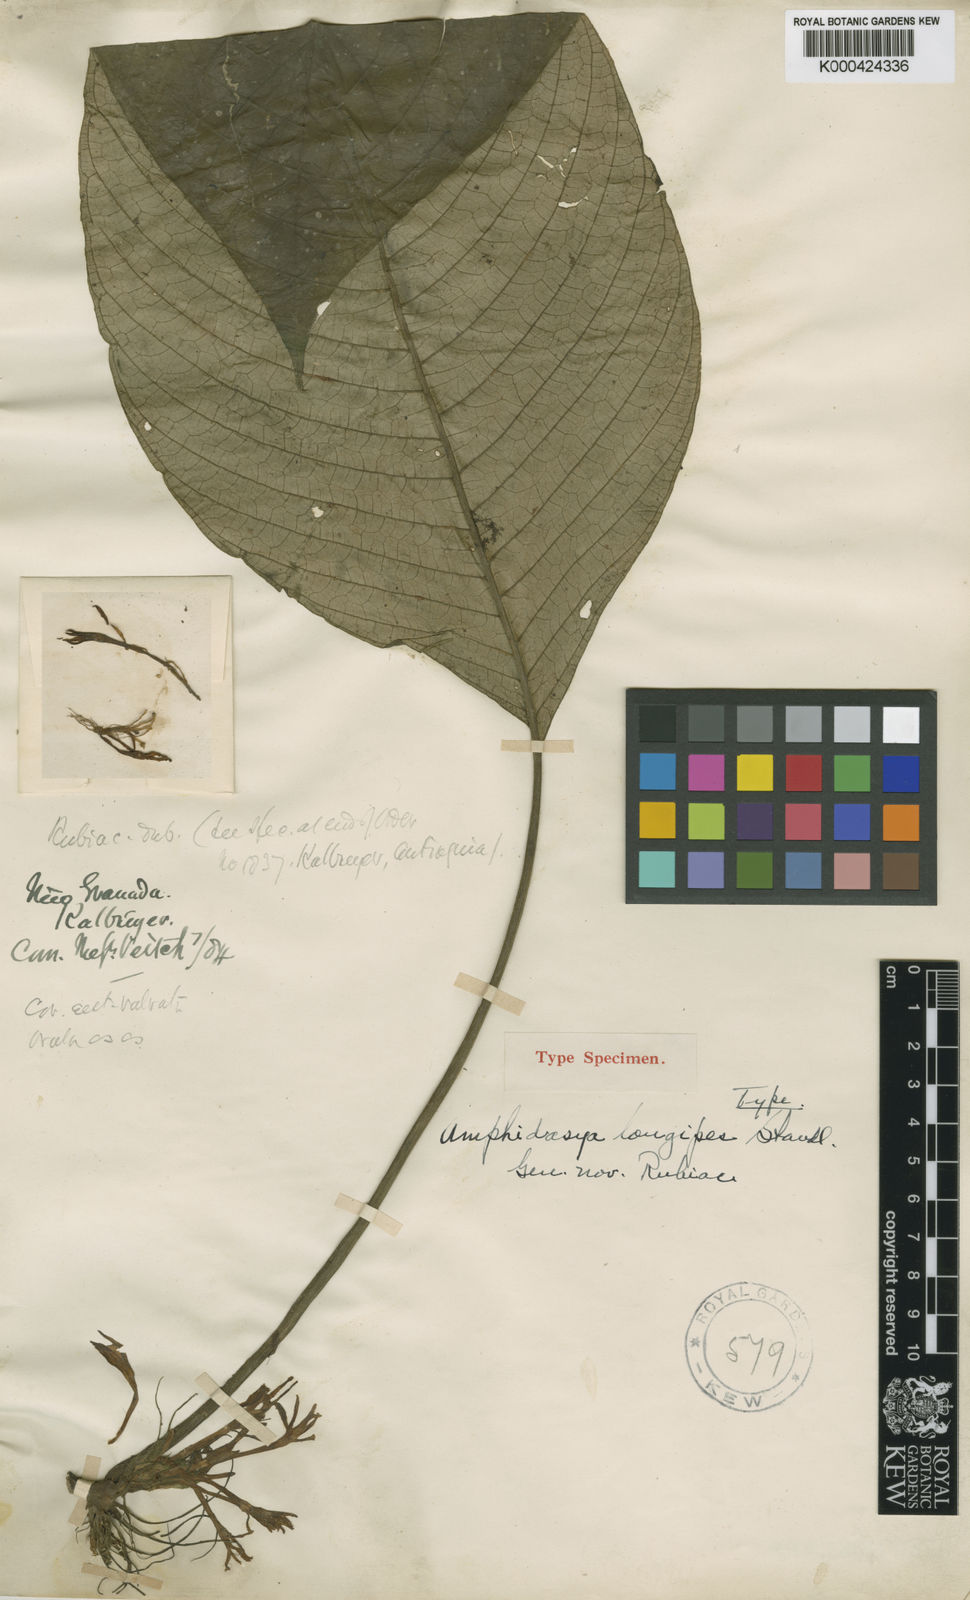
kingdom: Plantae
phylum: Tracheophyta
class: Magnoliopsida
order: Gentianales
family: Rubiaceae
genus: Amphidasya
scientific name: Amphidasya
